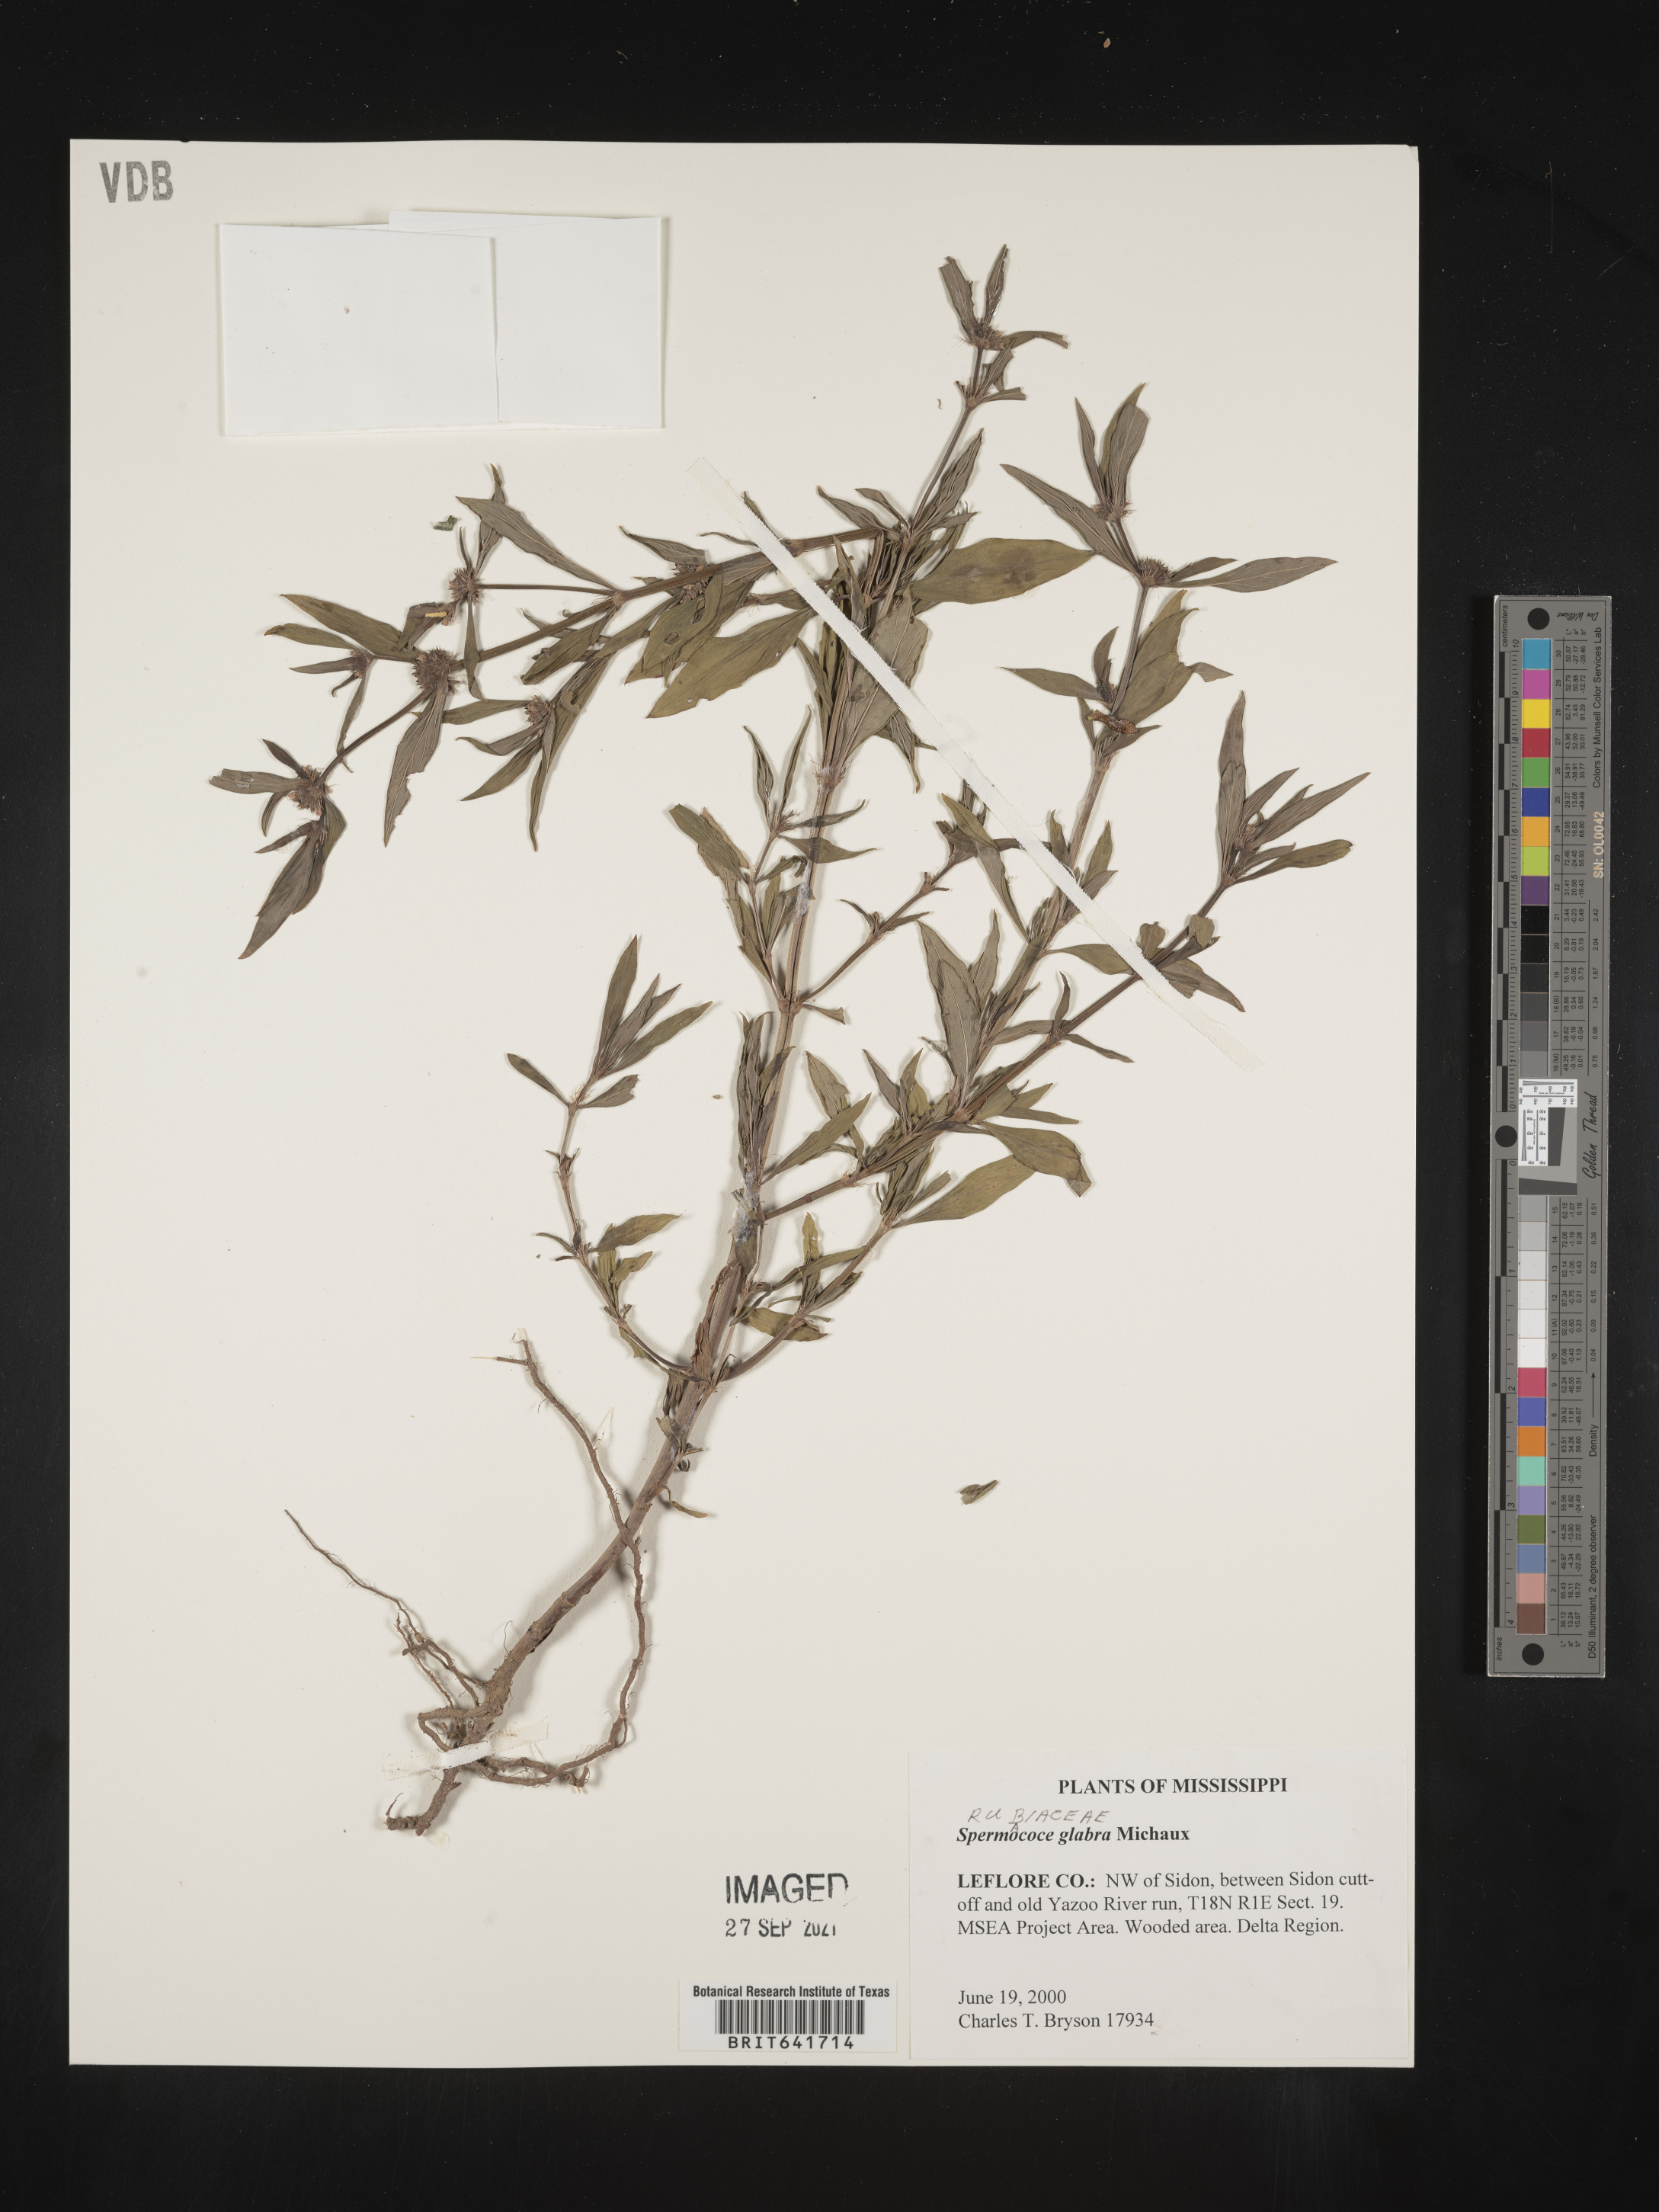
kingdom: Plantae
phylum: Tracheophyta
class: Magnoliopsida
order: Gentianales
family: Rubiaceae
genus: Spermacoce
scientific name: Spermacoce glabra
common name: Smooth buttonweed
